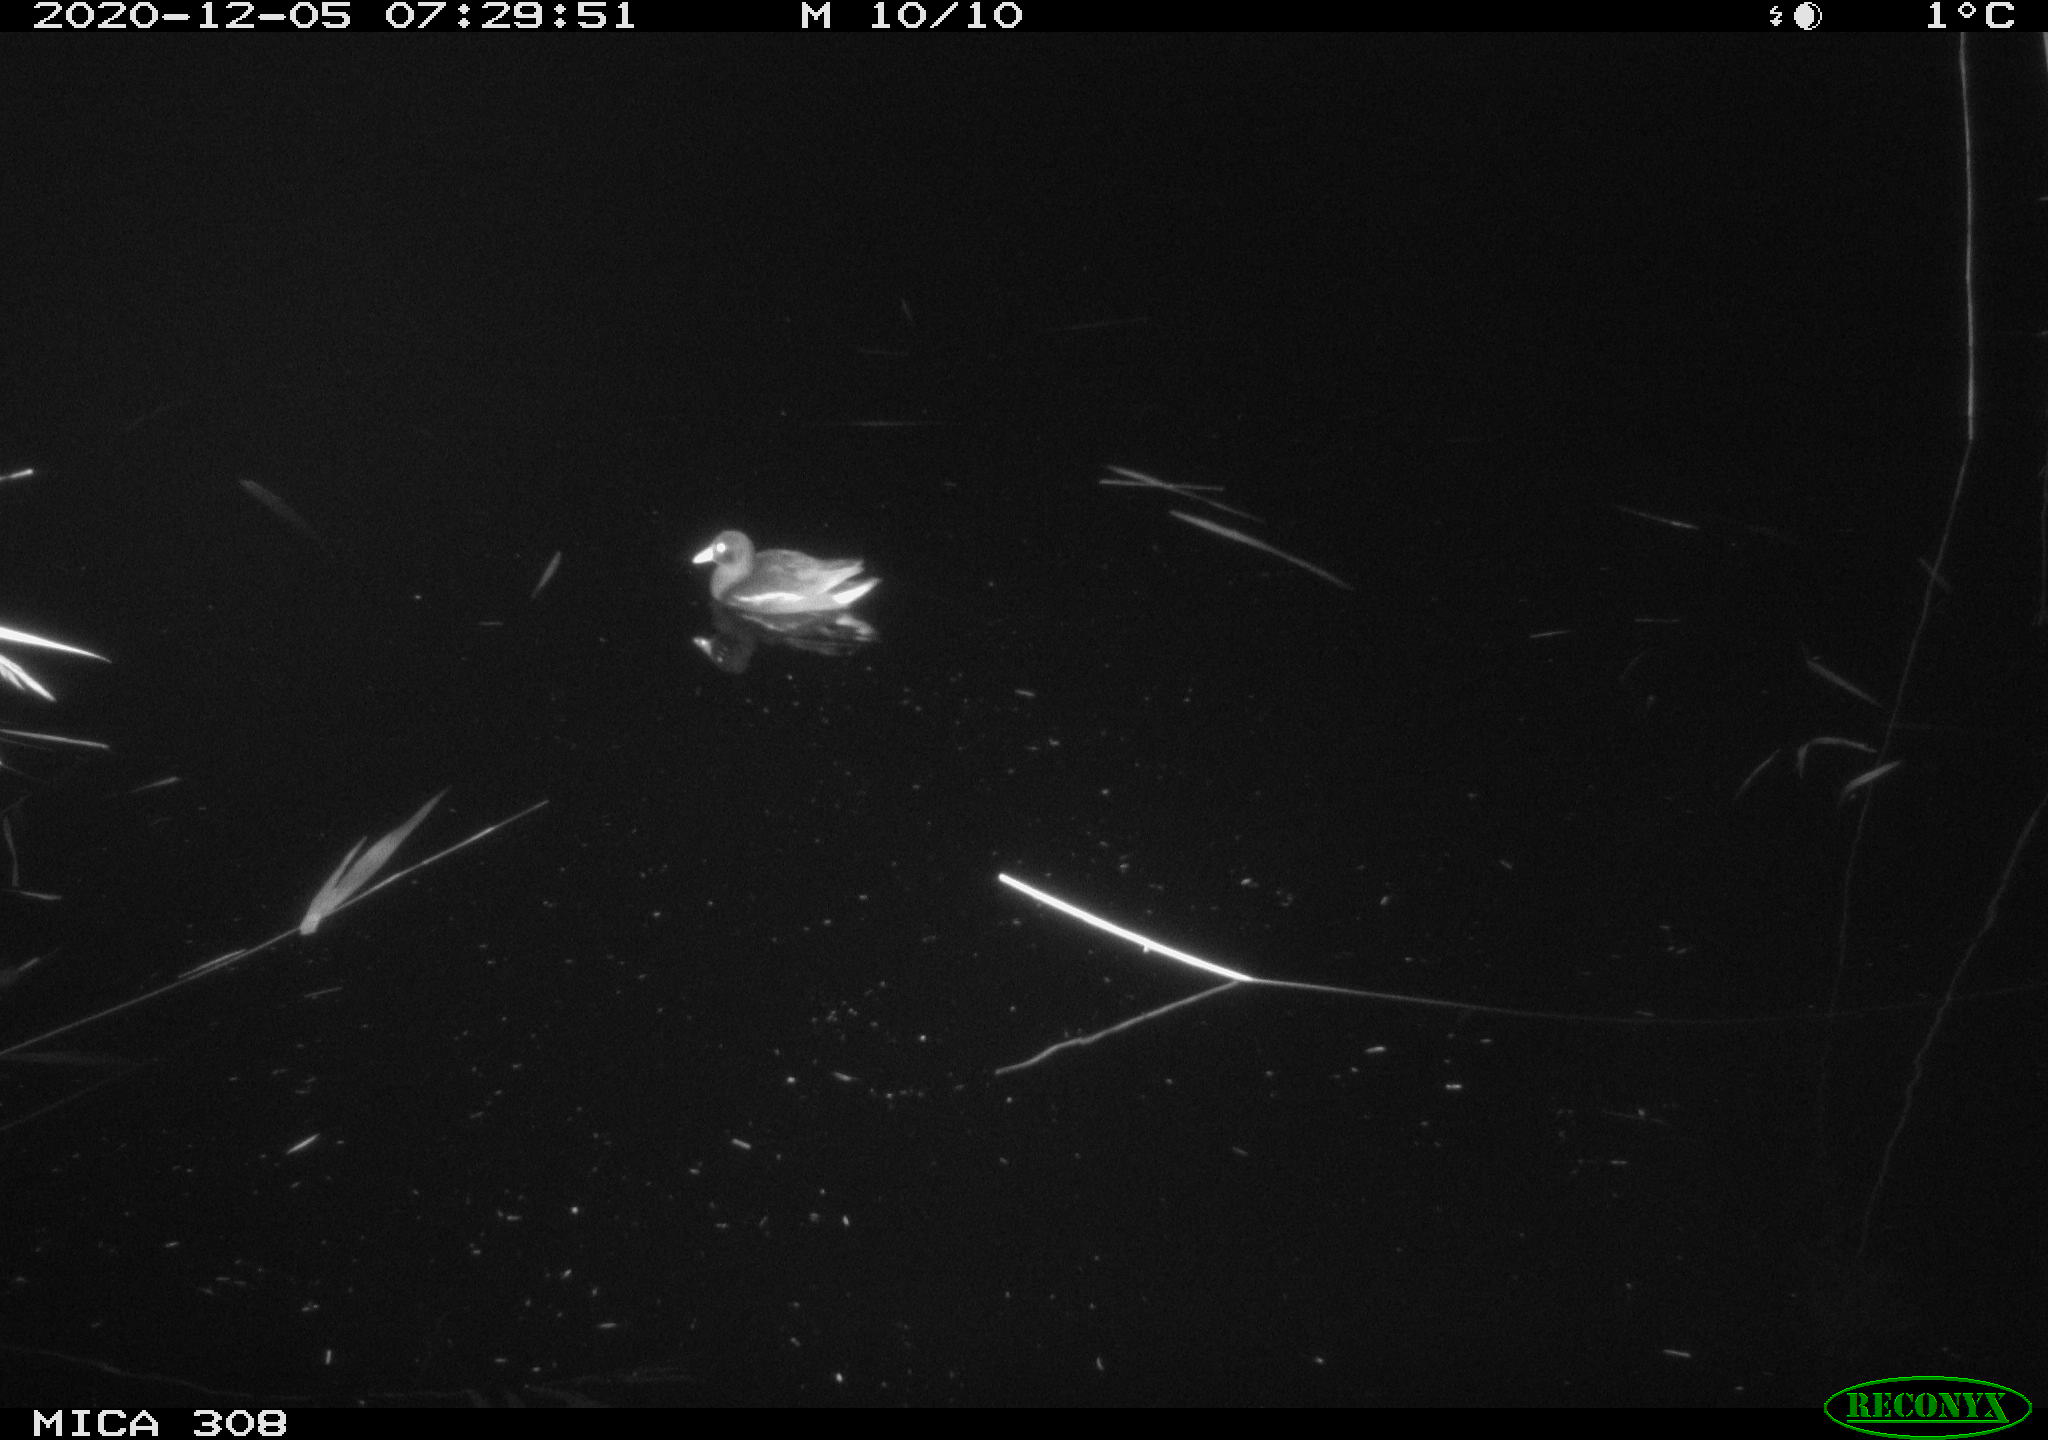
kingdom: Animalia
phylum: Chordata
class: Aves
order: Gruiformes
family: Rallidae
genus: Gallinula
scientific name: Gallinula chloropus
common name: Common moorhen
